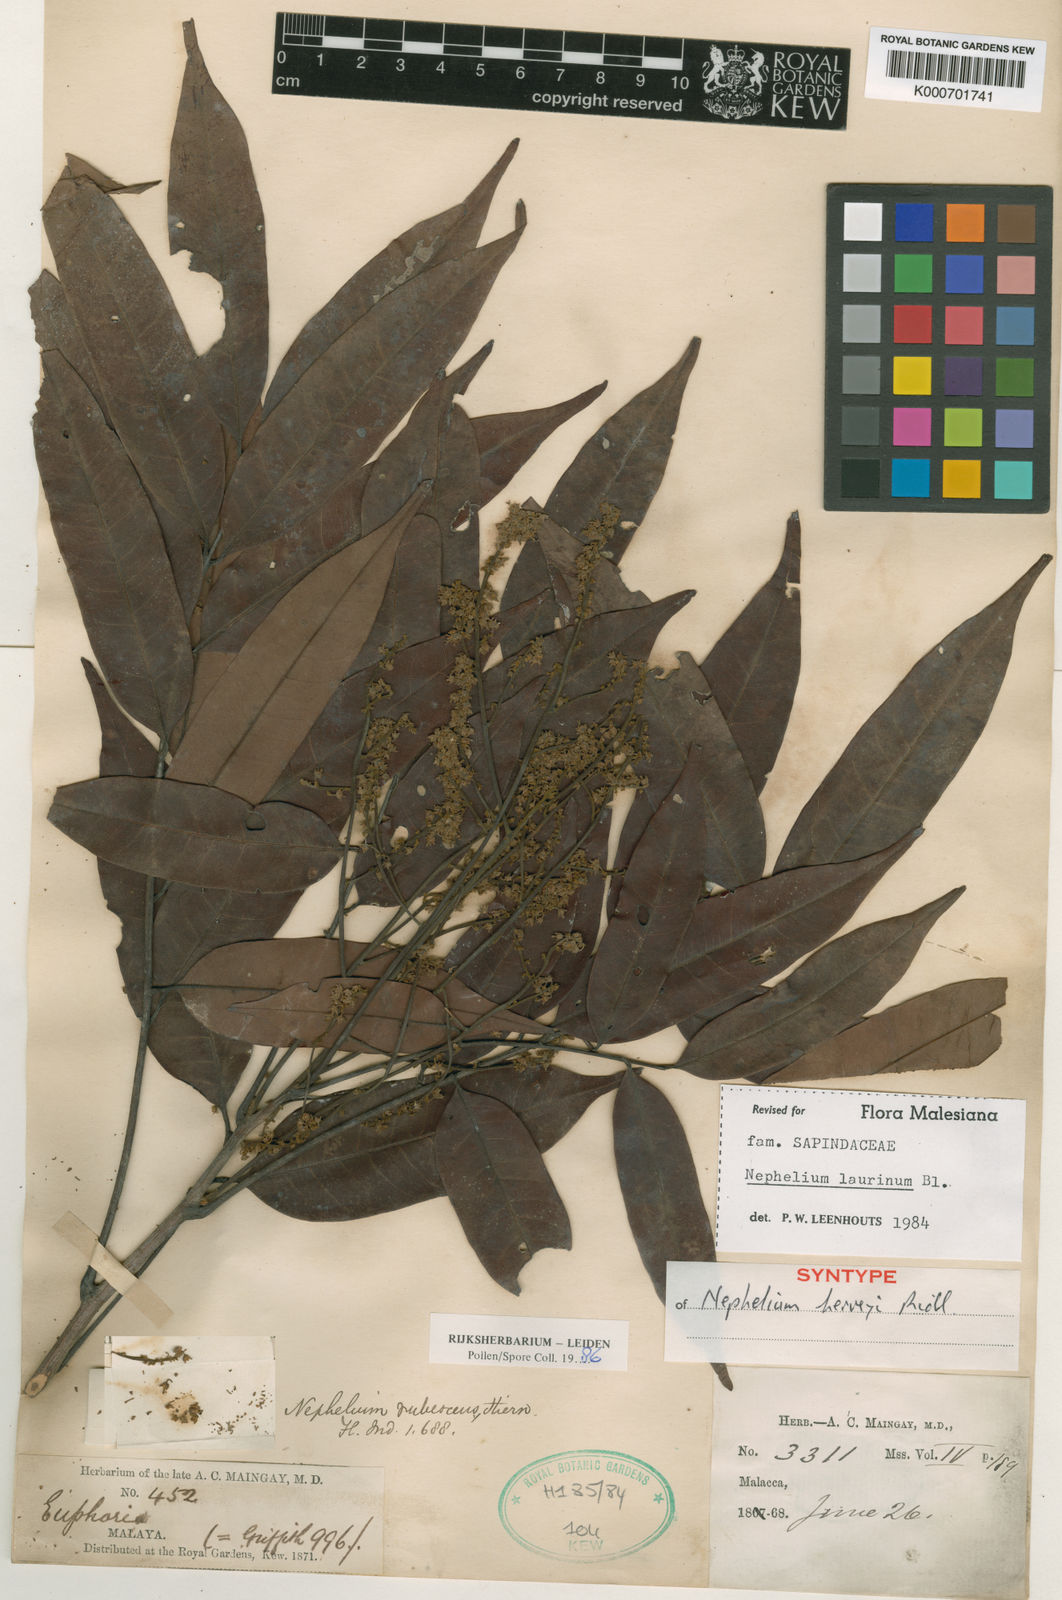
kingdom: Plantae
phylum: Tracheophyta
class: Magnoliopsida
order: Sapindales
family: Sapindaceae
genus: Nephelium
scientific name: Nephelium laurinum
